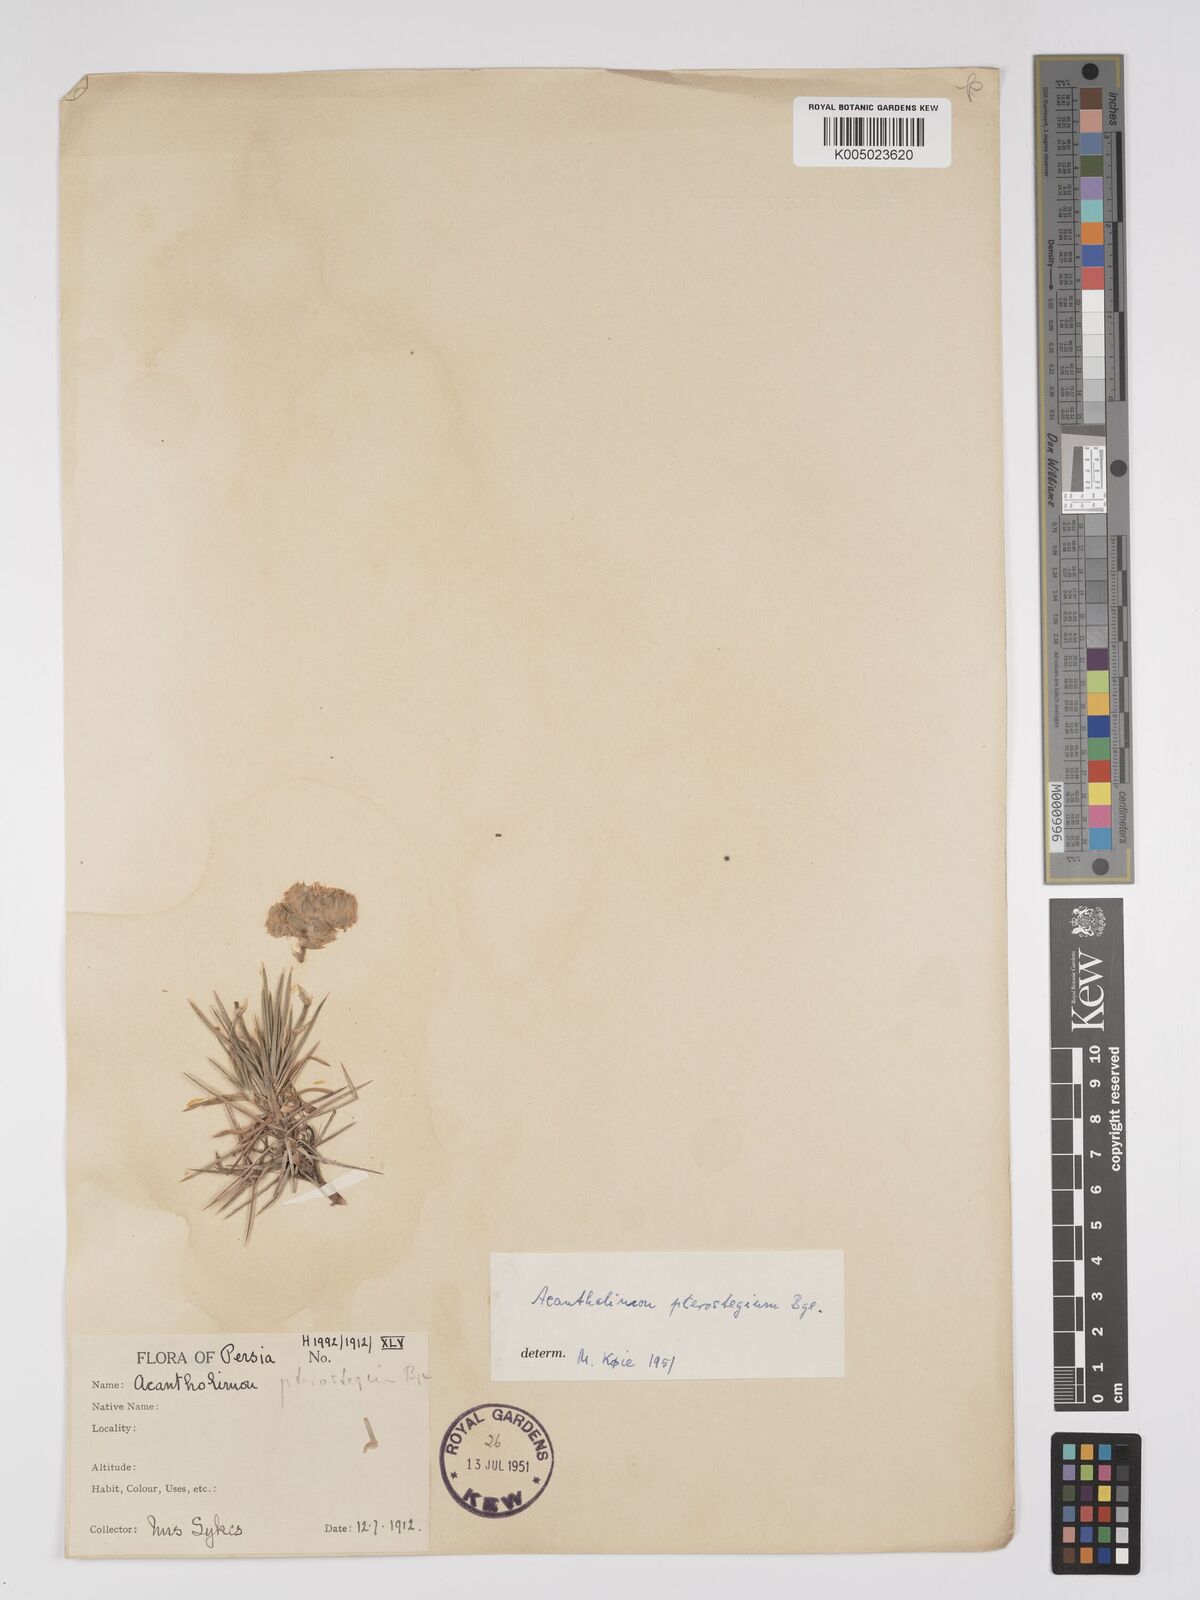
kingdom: Plantae
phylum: Tracheophyta
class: Magnoliopsida
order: Caryophyllales
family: Plumbaginaceae
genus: Acantholimon
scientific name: Acantholimon pterostegium
